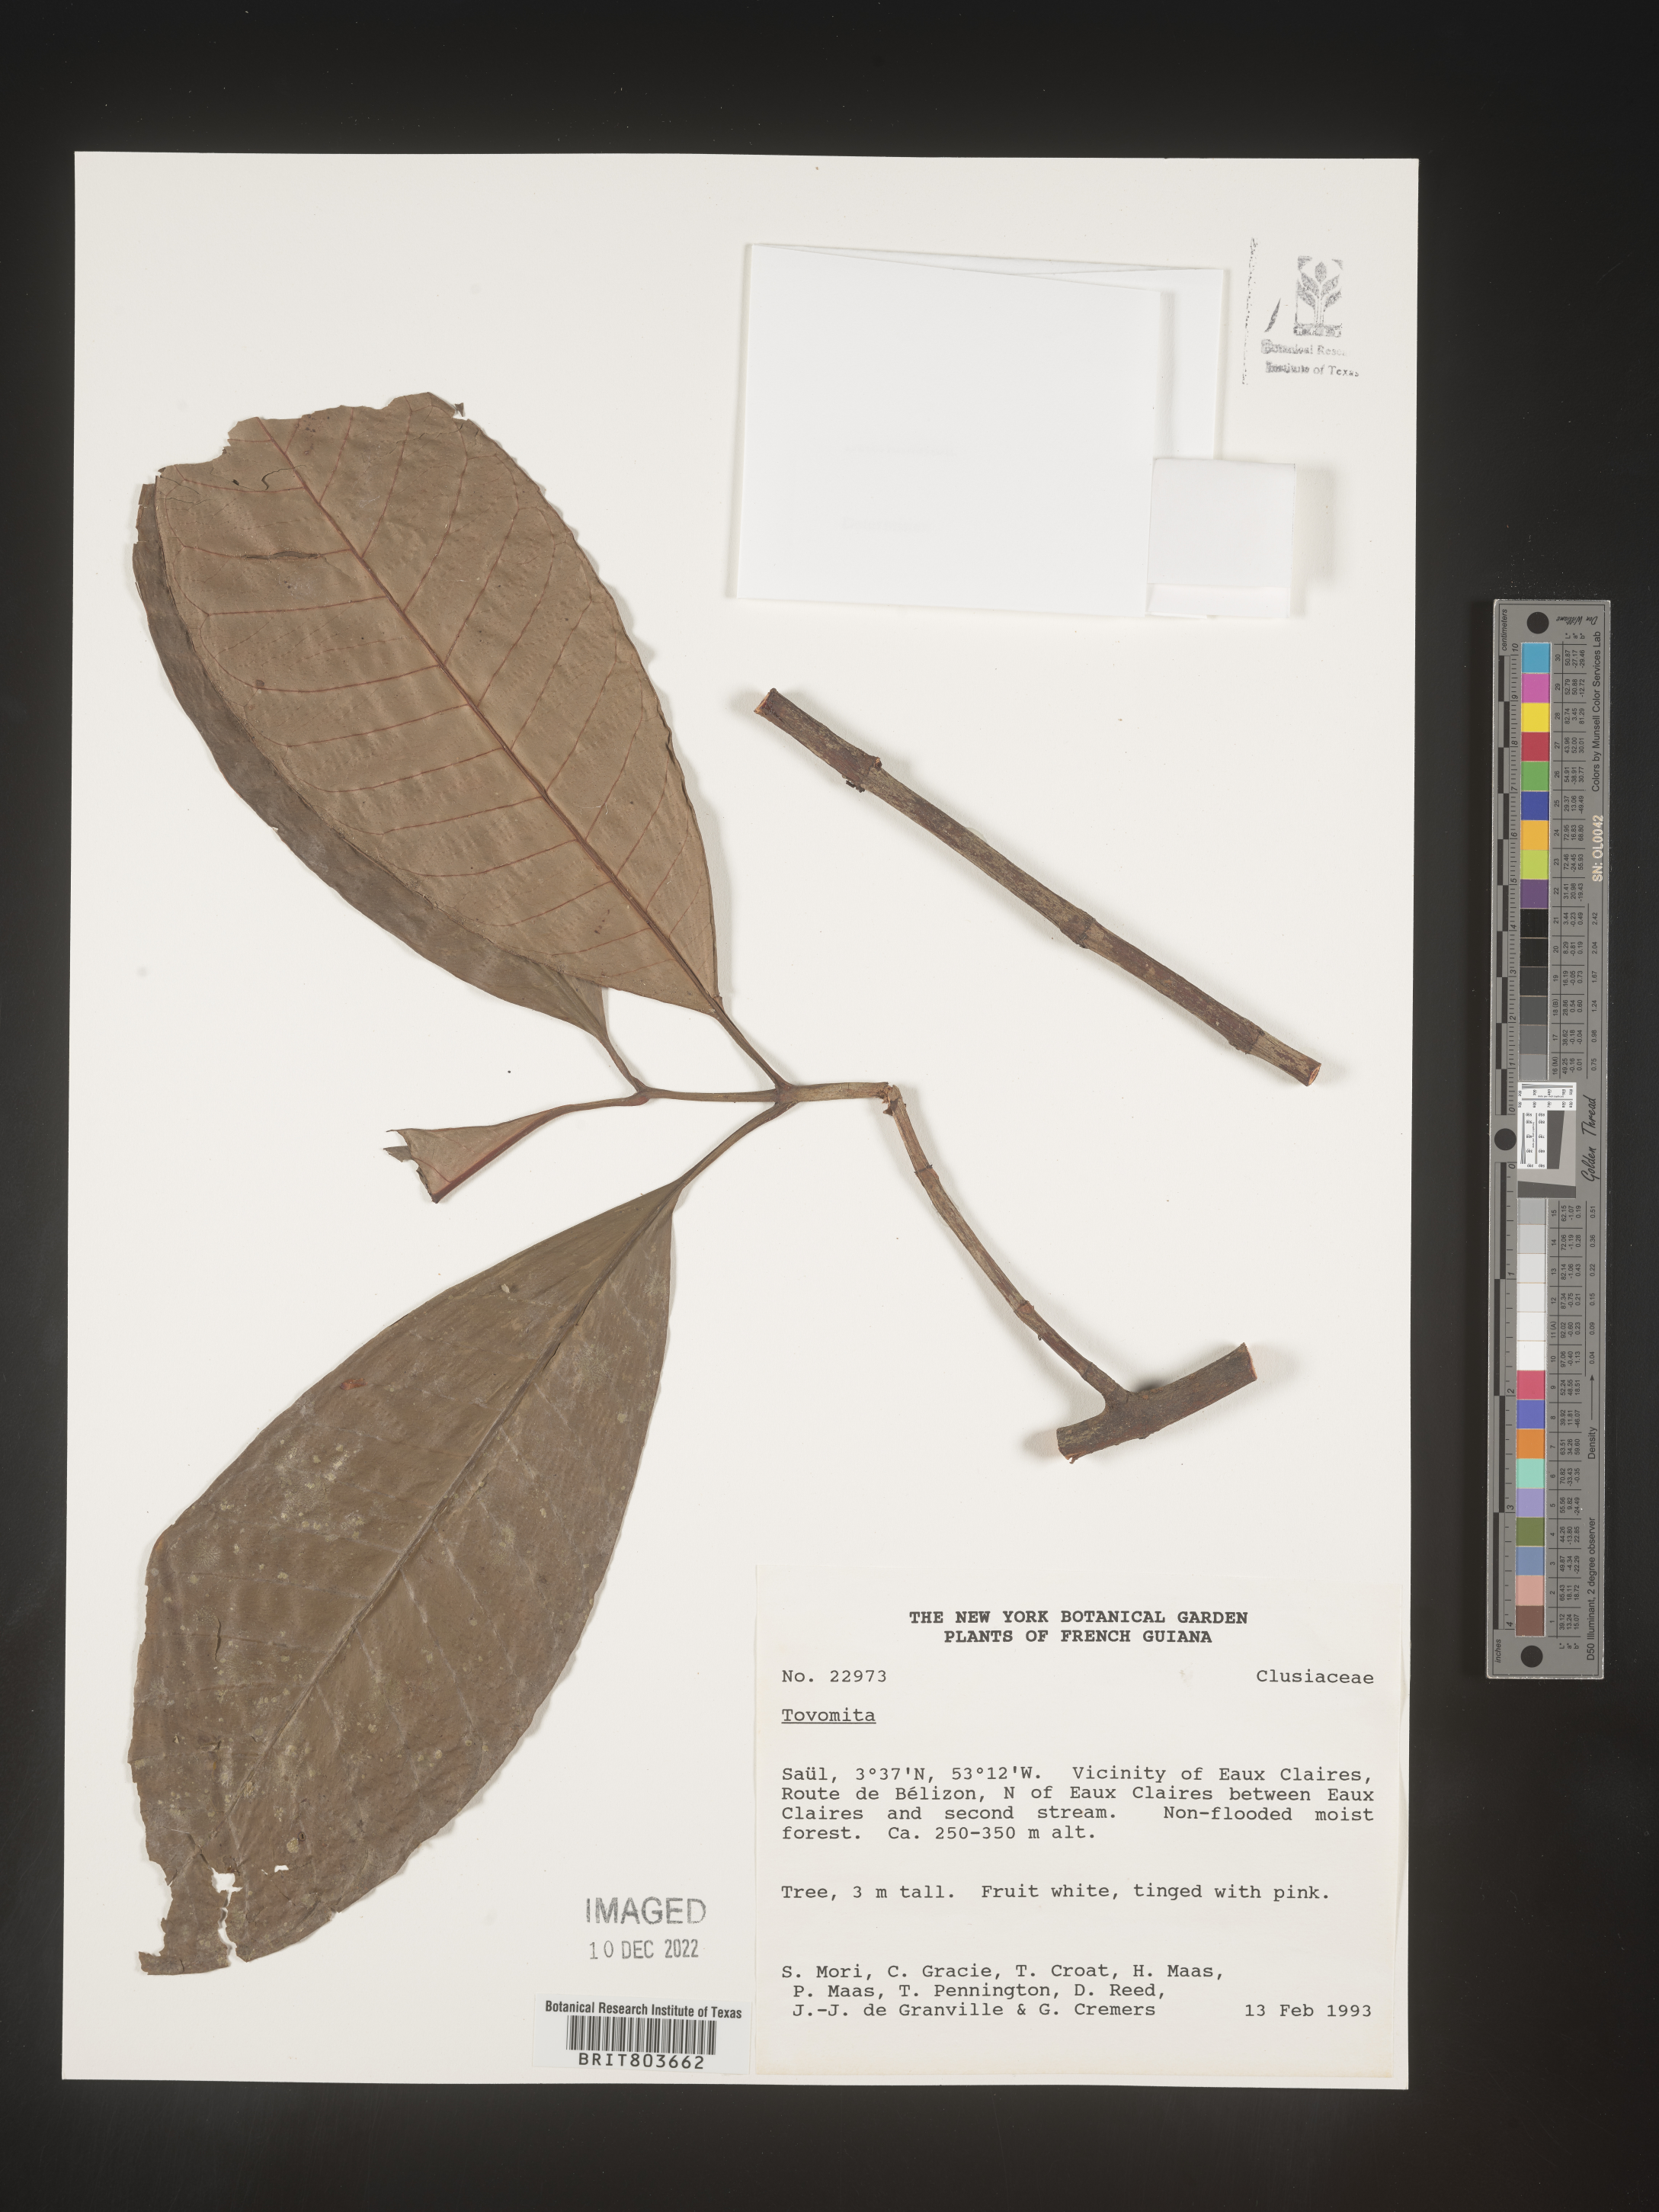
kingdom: Plantae
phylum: Tracheophyta
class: Magnoliopsida
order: Malpighiales
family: Clusiaceae
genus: Tovomita
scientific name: Tovomita
